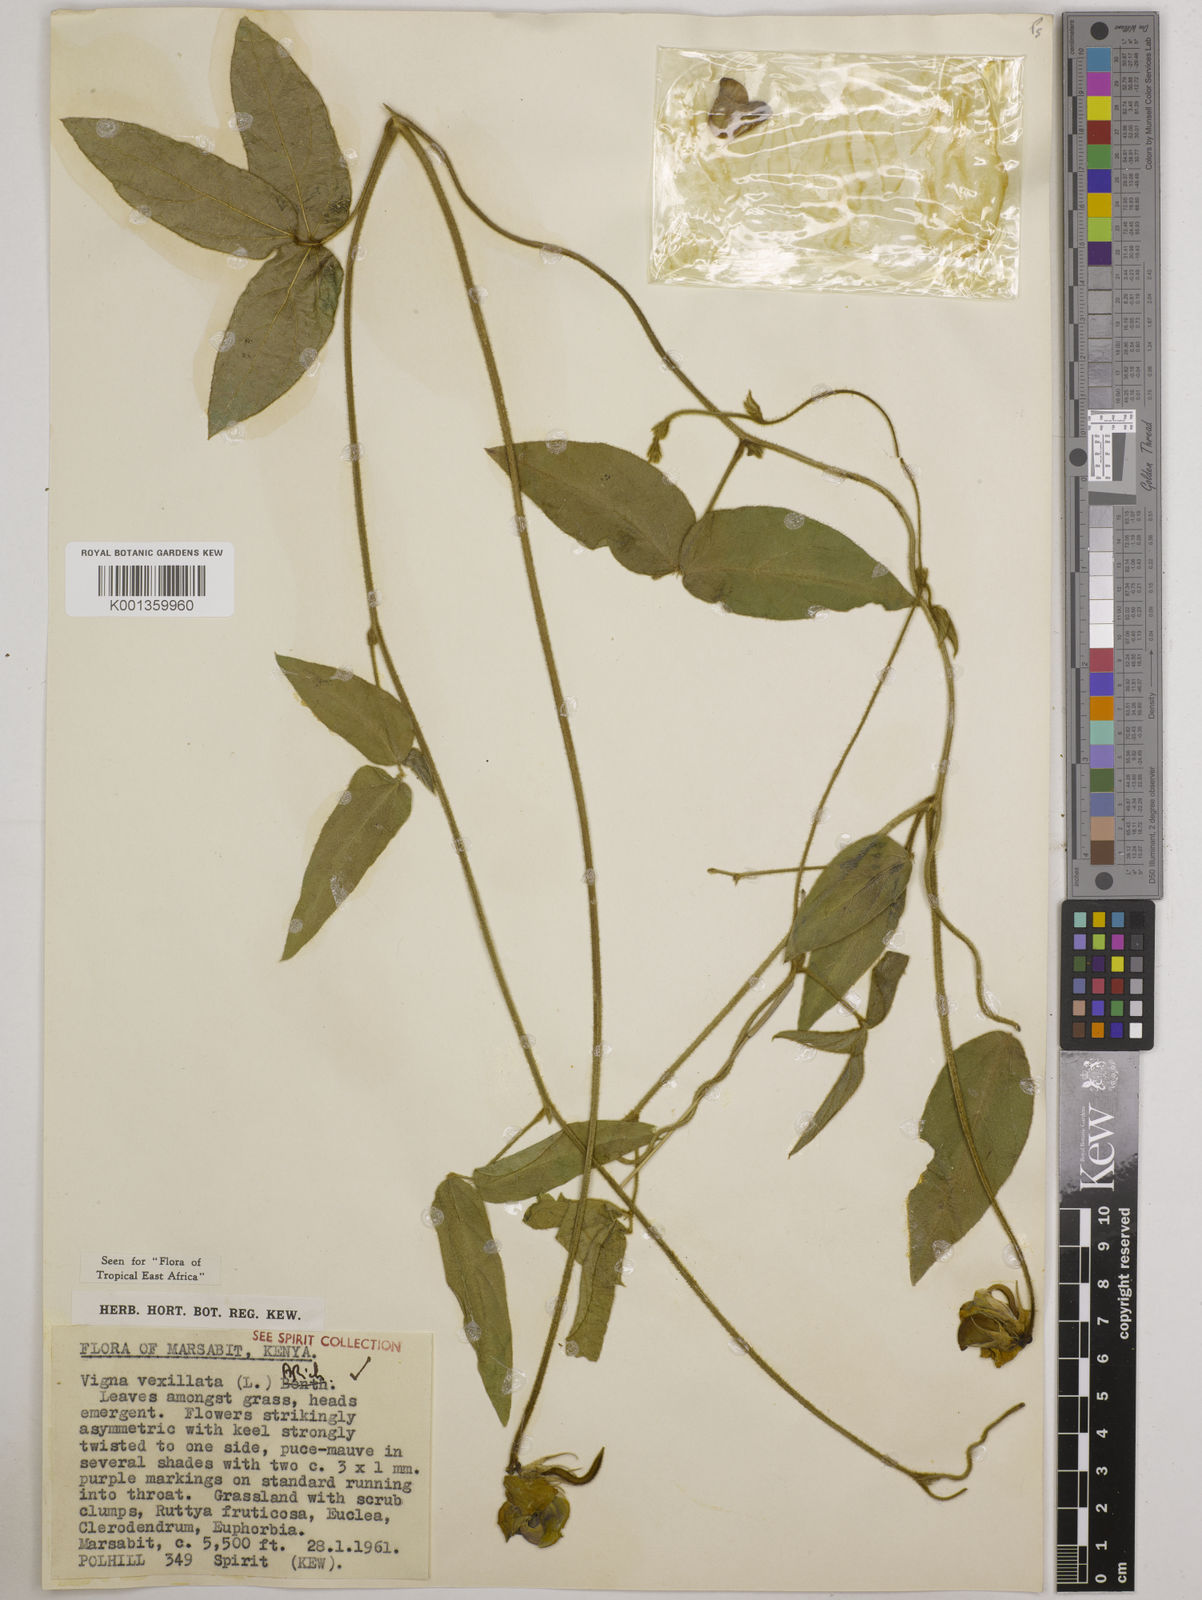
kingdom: Plantae
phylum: Tracheophyta
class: Magnoliopsida
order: Fabales
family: Fabaceae
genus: Vigna
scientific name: Vigna vexillata
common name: Zombi pea
